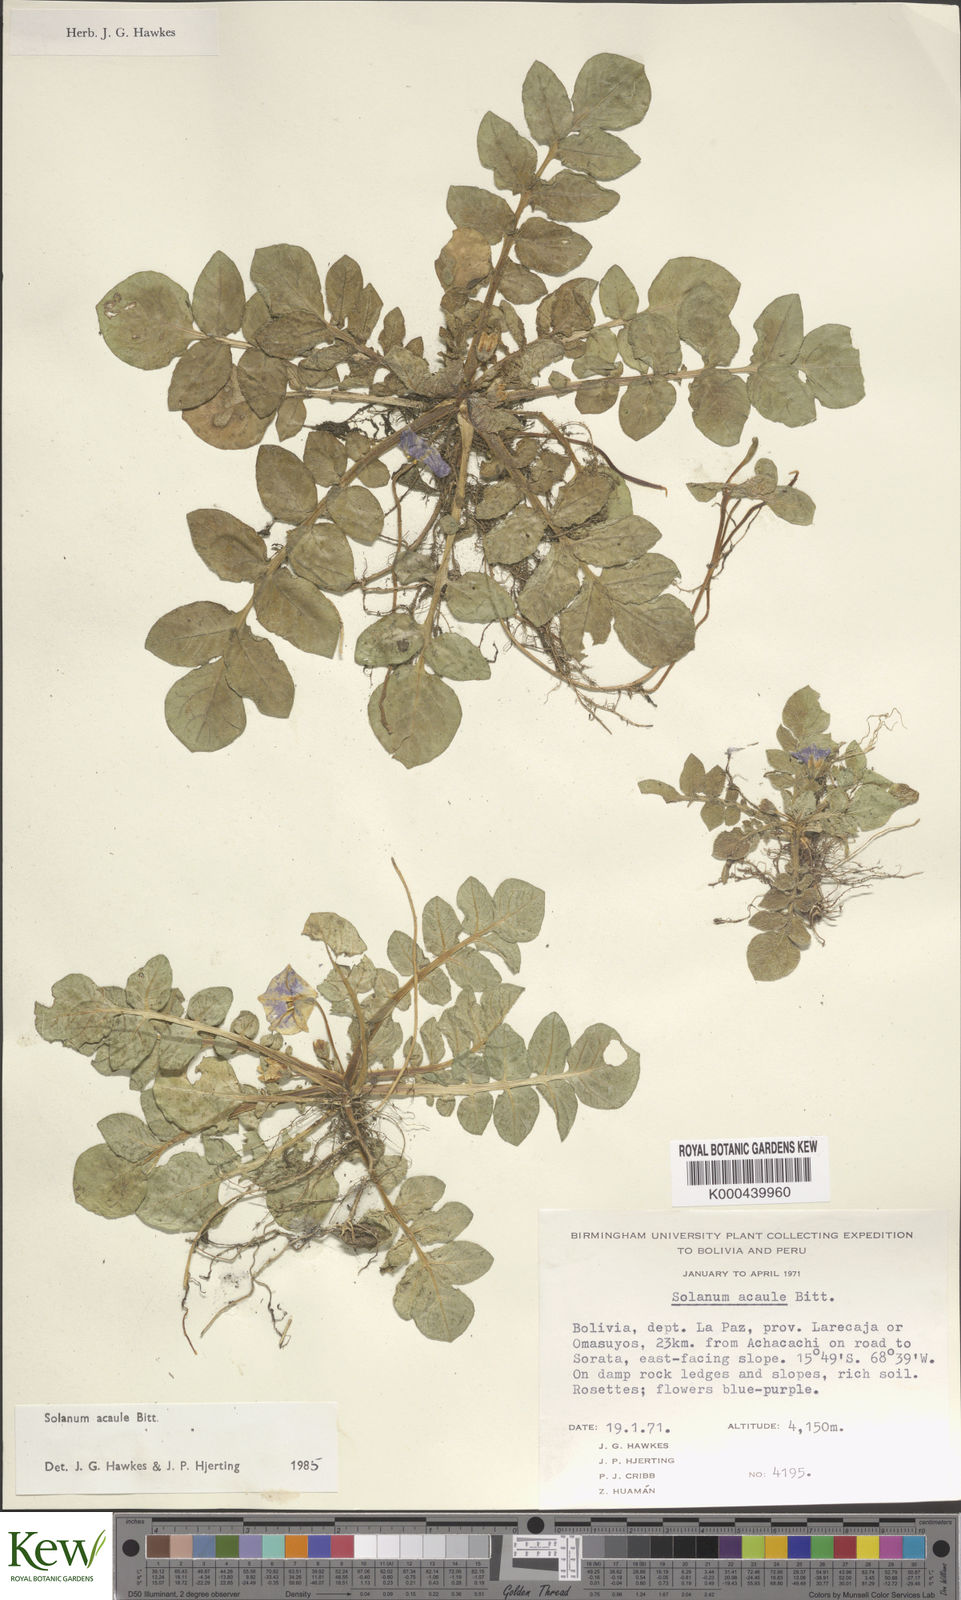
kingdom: Plantae
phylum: Tracheophyta
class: Magnoliopsida
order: Solanales
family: Solanaceae
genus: Solanum
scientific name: Solanum acaule
